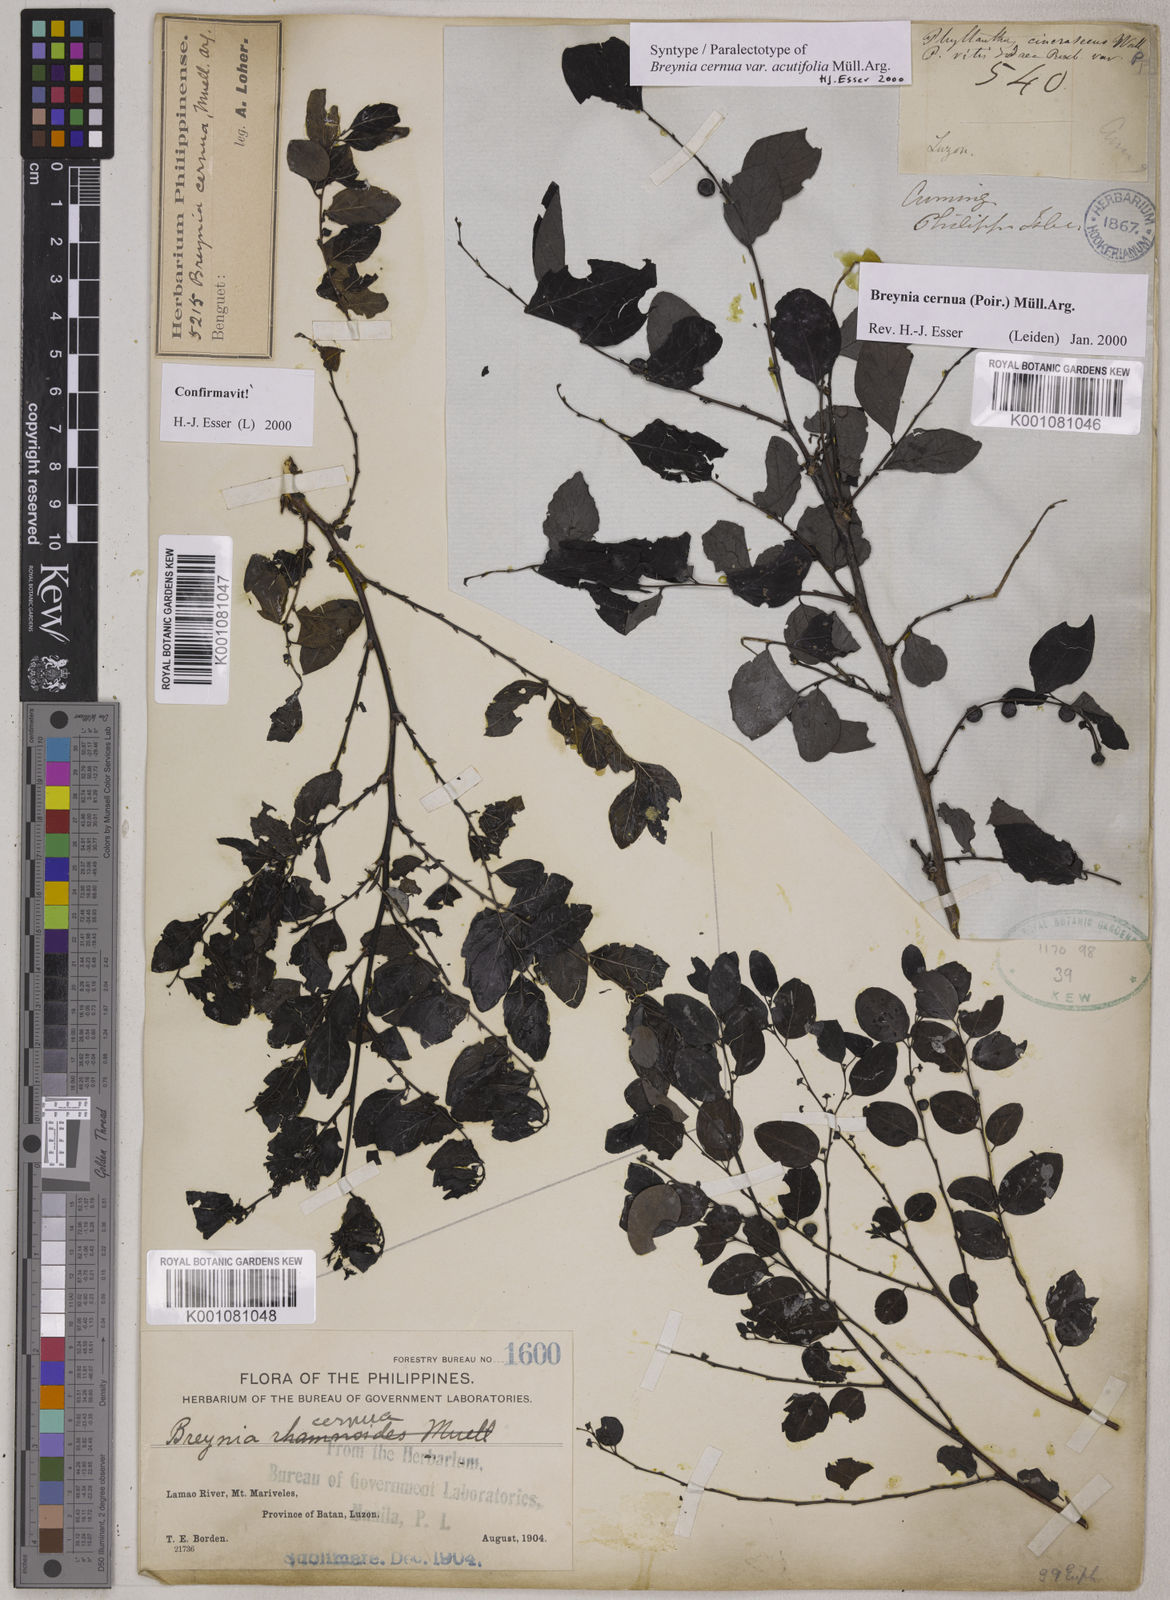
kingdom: Plantae
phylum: Tracheophyta
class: Magnoliopsida
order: Malpighiales
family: Phyllanthaceae
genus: Breynia
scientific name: Breynia
